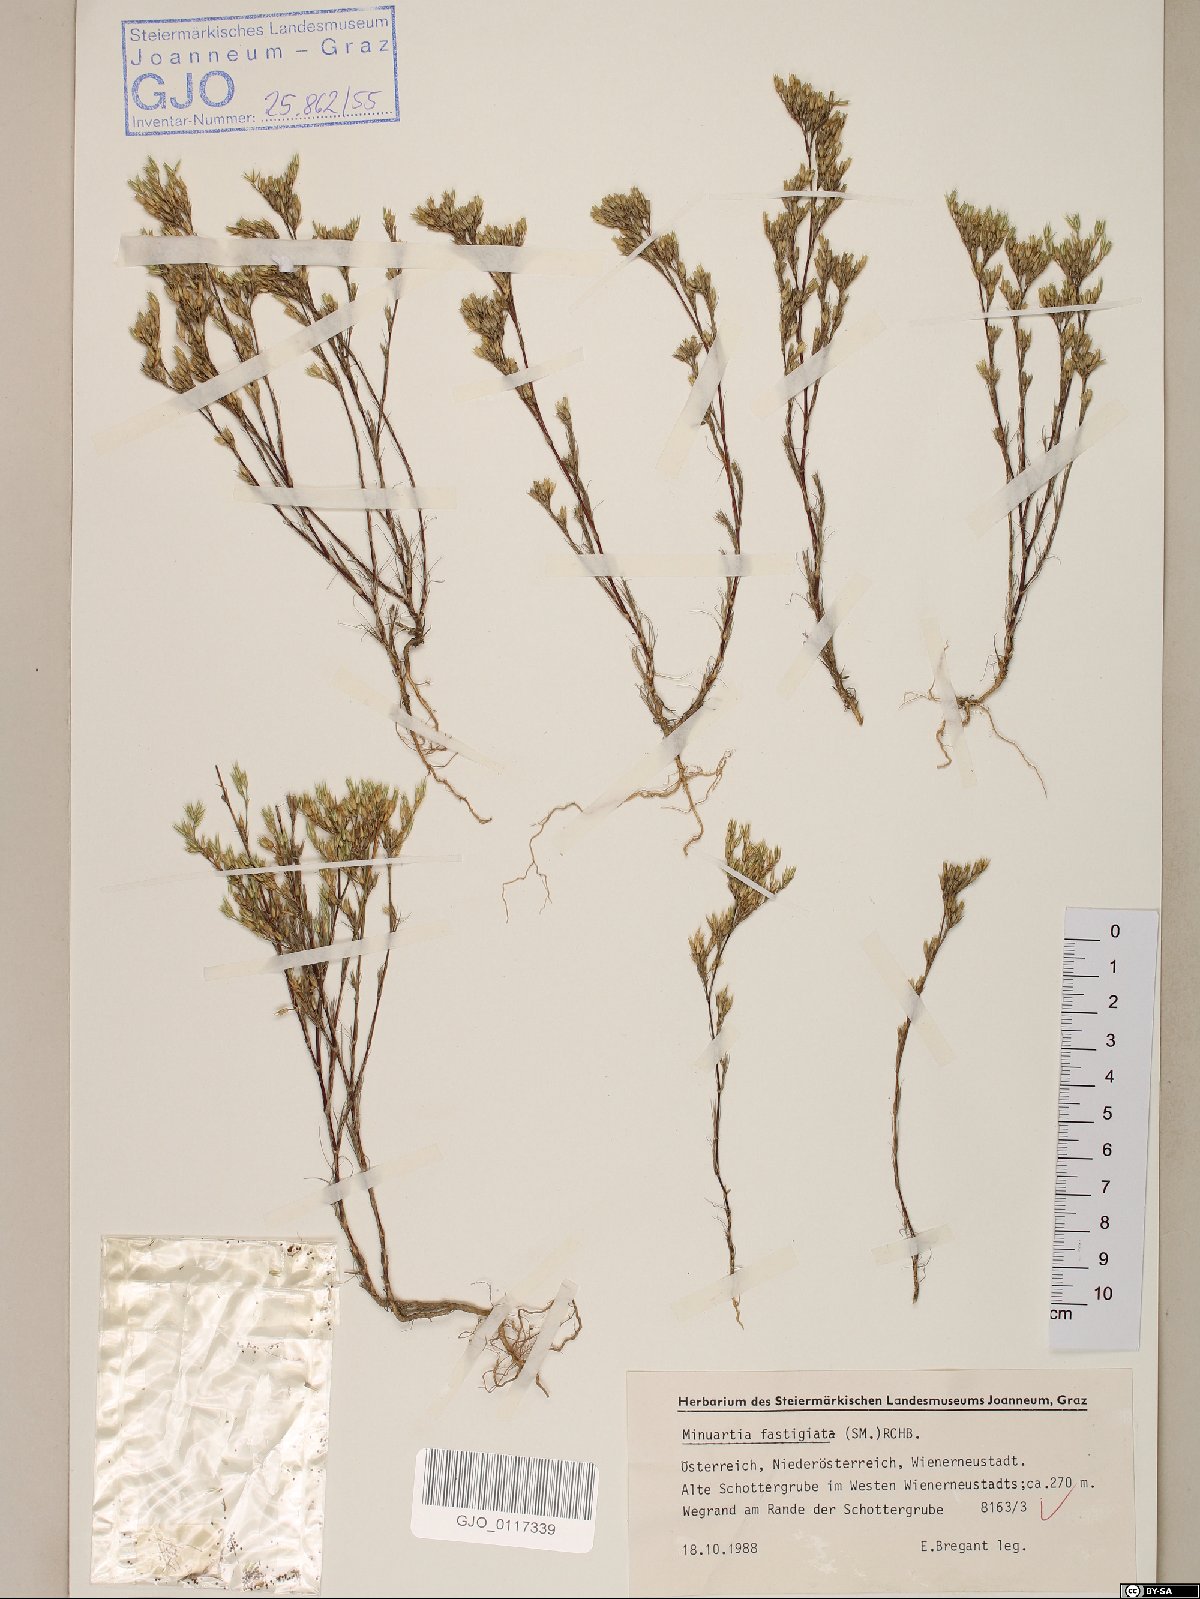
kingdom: Plantae
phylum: Tracheophyta
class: Magnoliopsida
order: Caryophyllales
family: Caryophyllaceae
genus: Minuartia
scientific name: Minuartia mucronata
